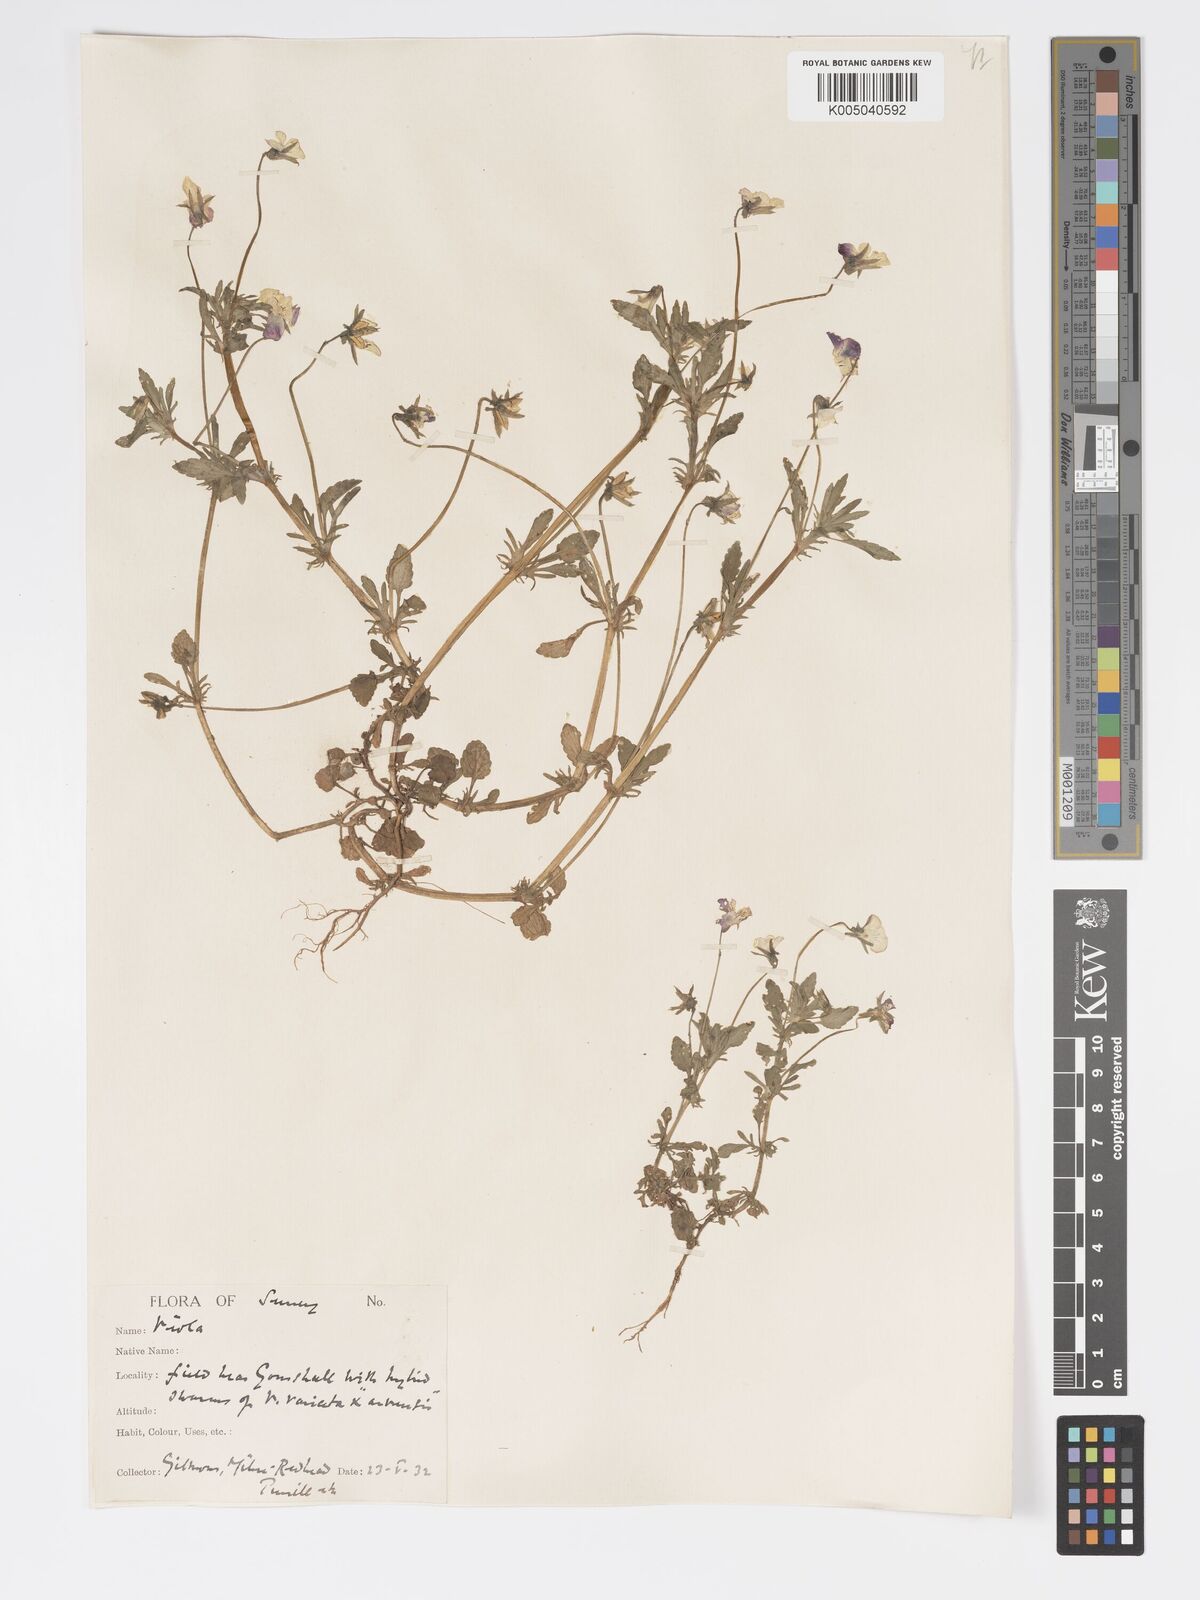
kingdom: Plantae
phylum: Tracheophyta
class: Magnoliopsida
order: Malpighiales
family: Violaceae
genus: Viola
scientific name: Viola
